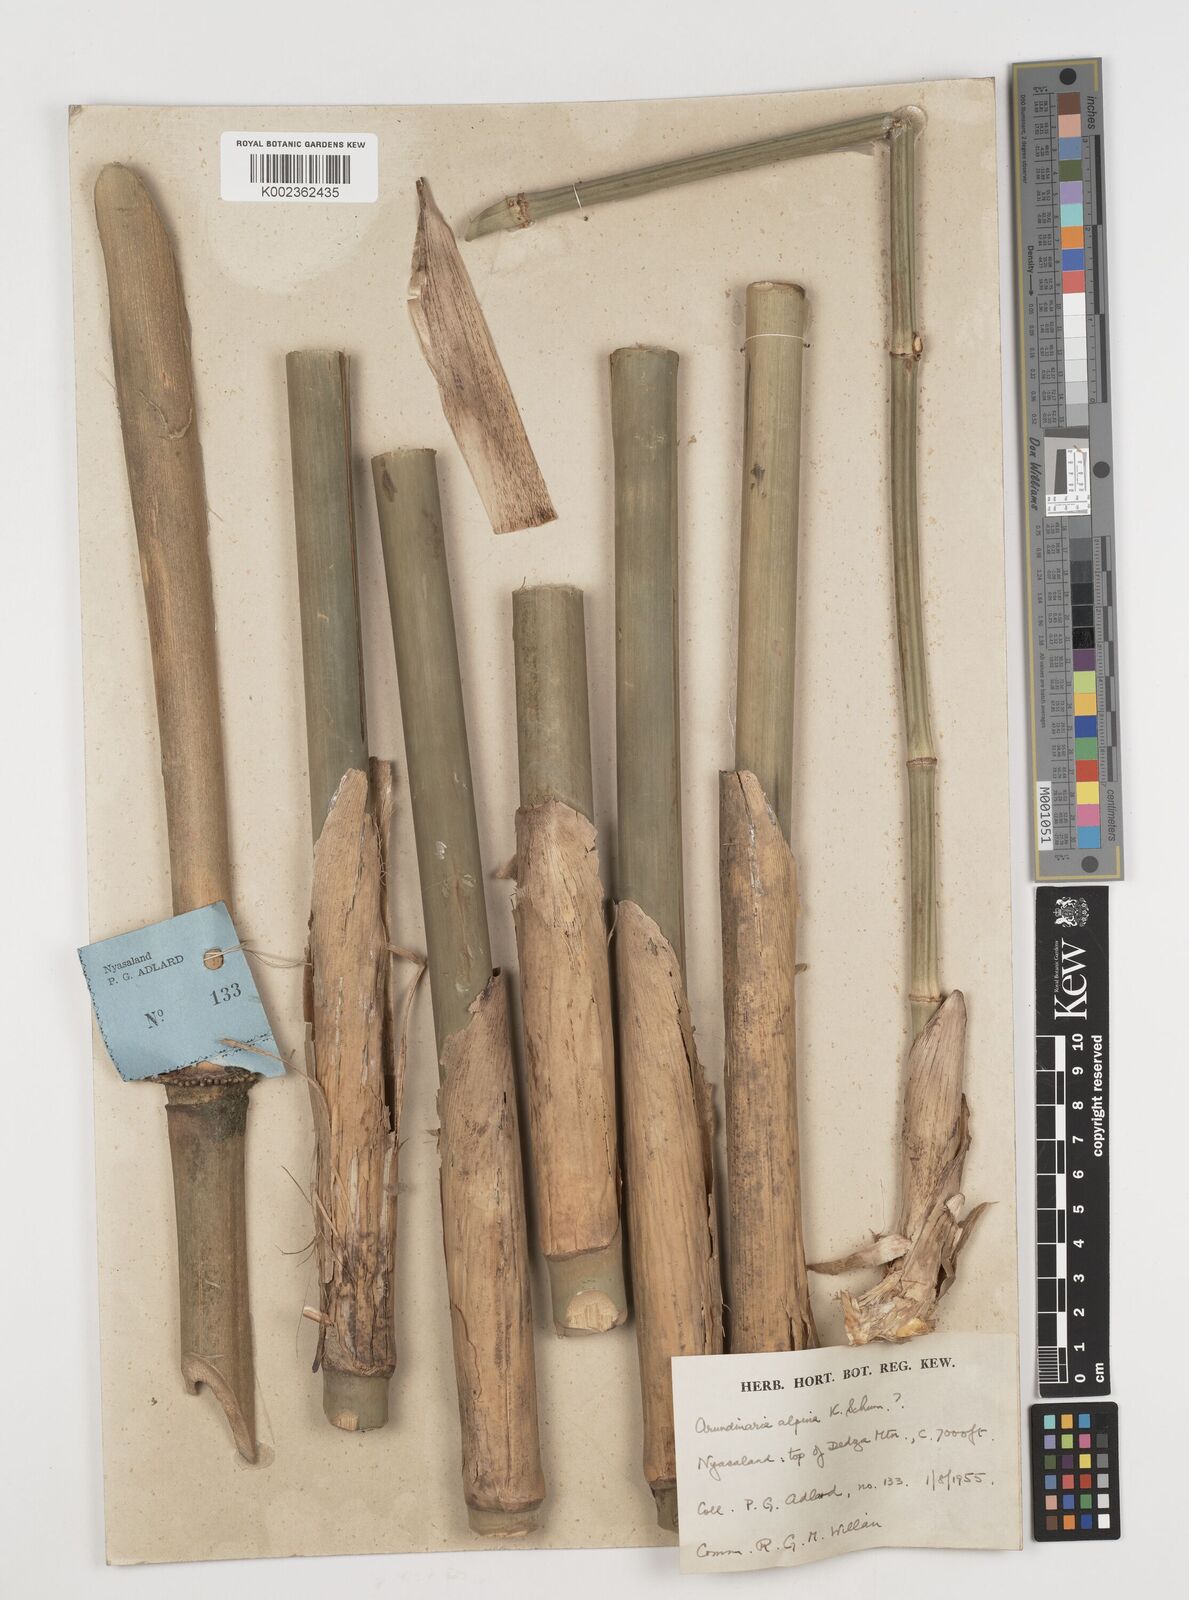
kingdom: Plantae
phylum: Tracheophyta
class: Liliopsida
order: Poales
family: Poaceae
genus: Oldeania
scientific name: Oldeania alpina
